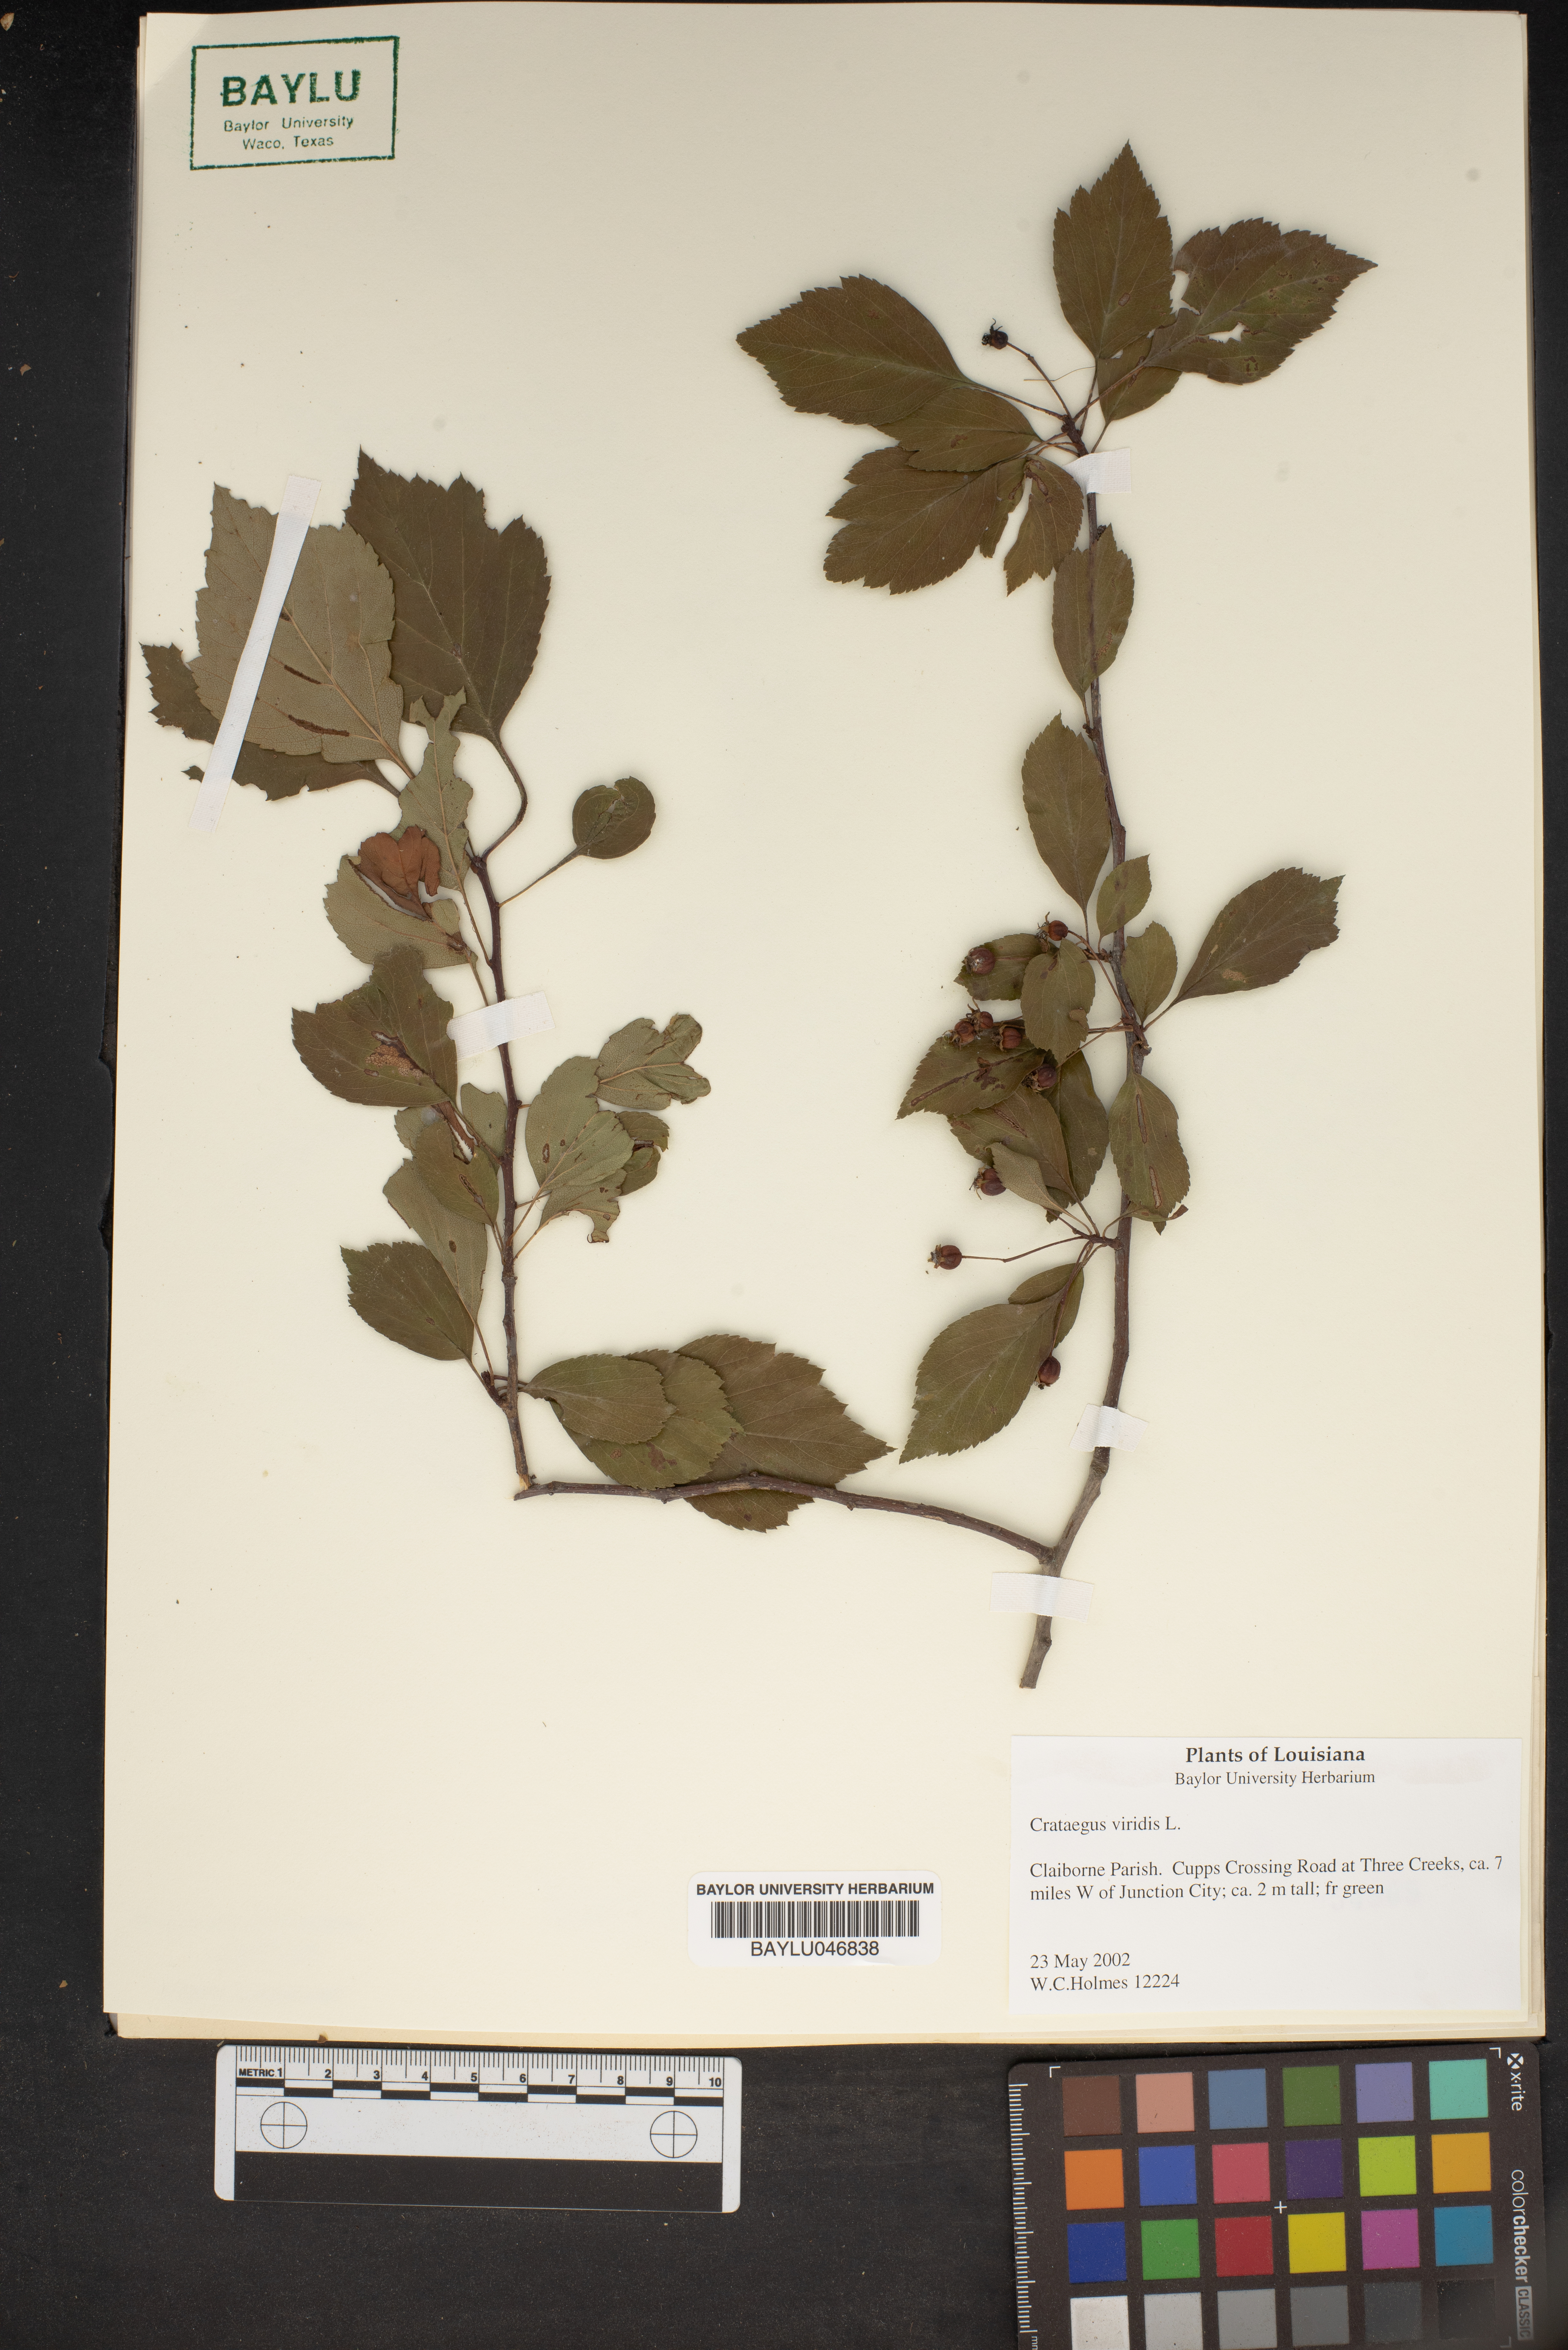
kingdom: Plantae
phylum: Tracheophyta
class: Magnoliopsida
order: Rosales
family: Rosaceae
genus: Crataegus
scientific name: Crataegus viridis
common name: Southernthorn
